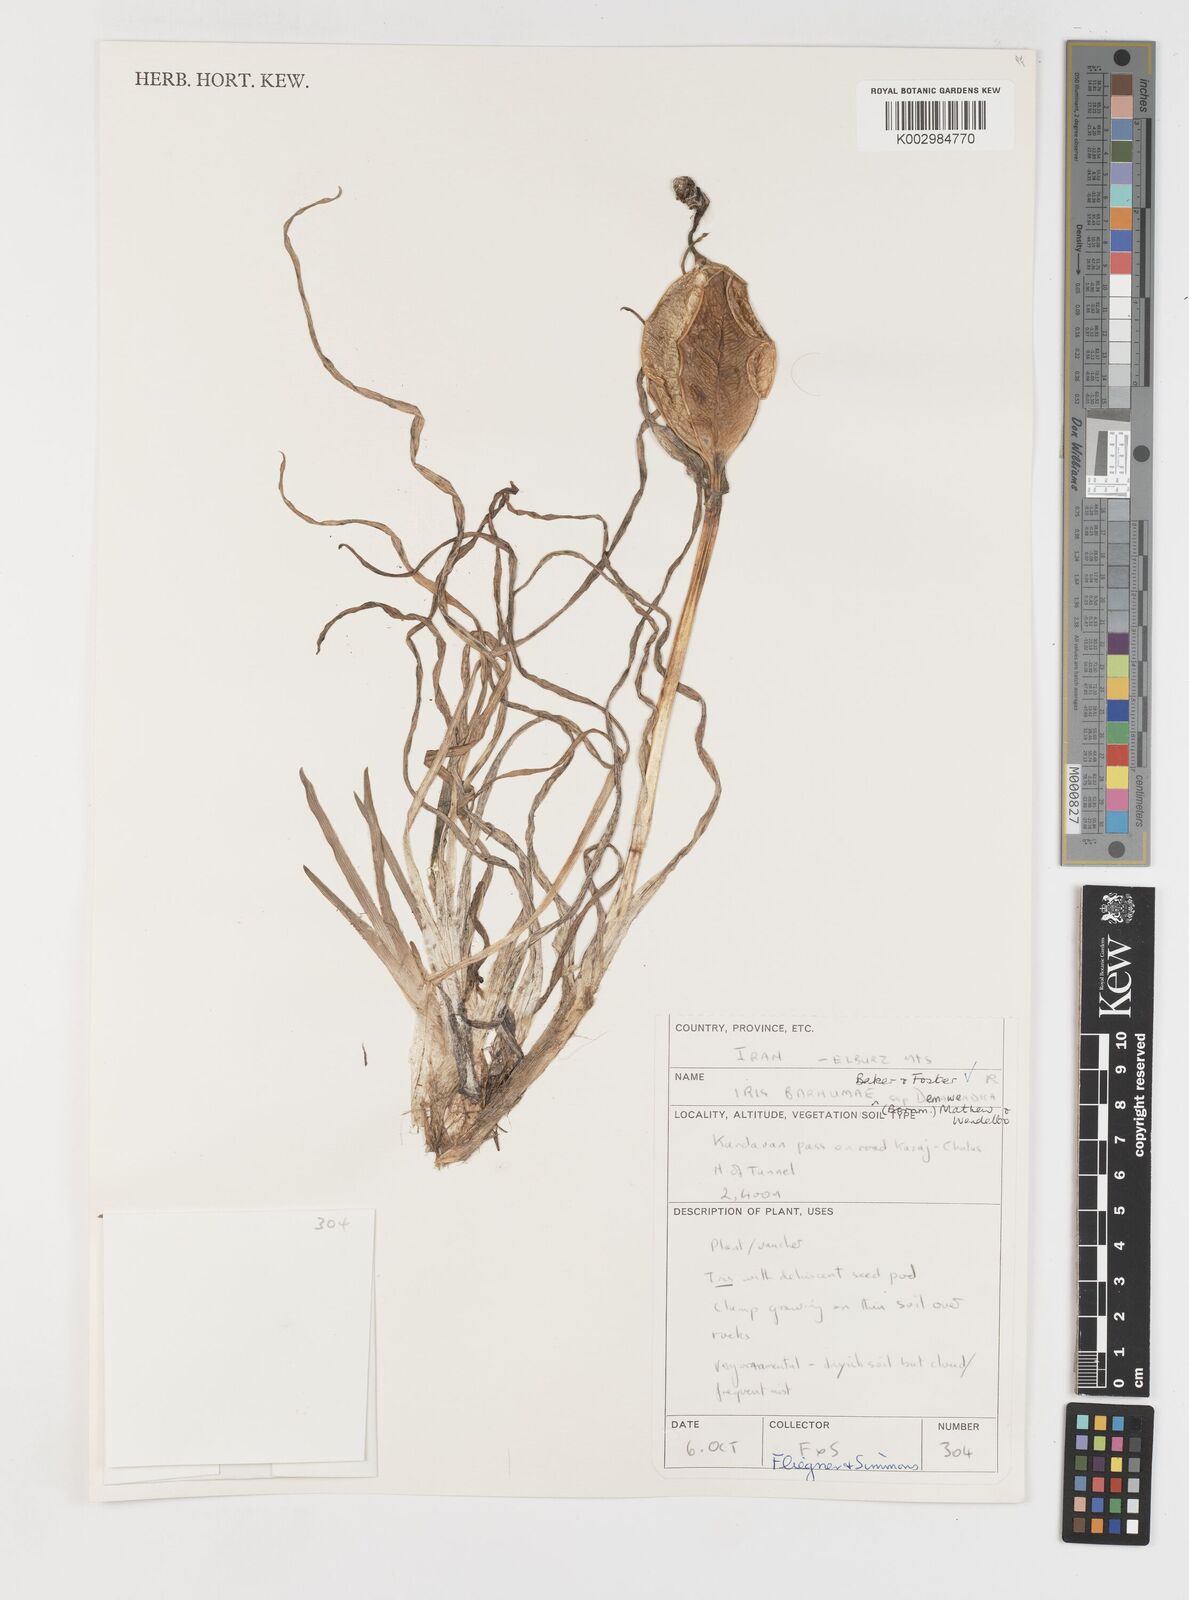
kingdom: Plantae
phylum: Tracheophyta
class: Liliopsida
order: Asparagales
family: Iridaceae
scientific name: Iridaceae
